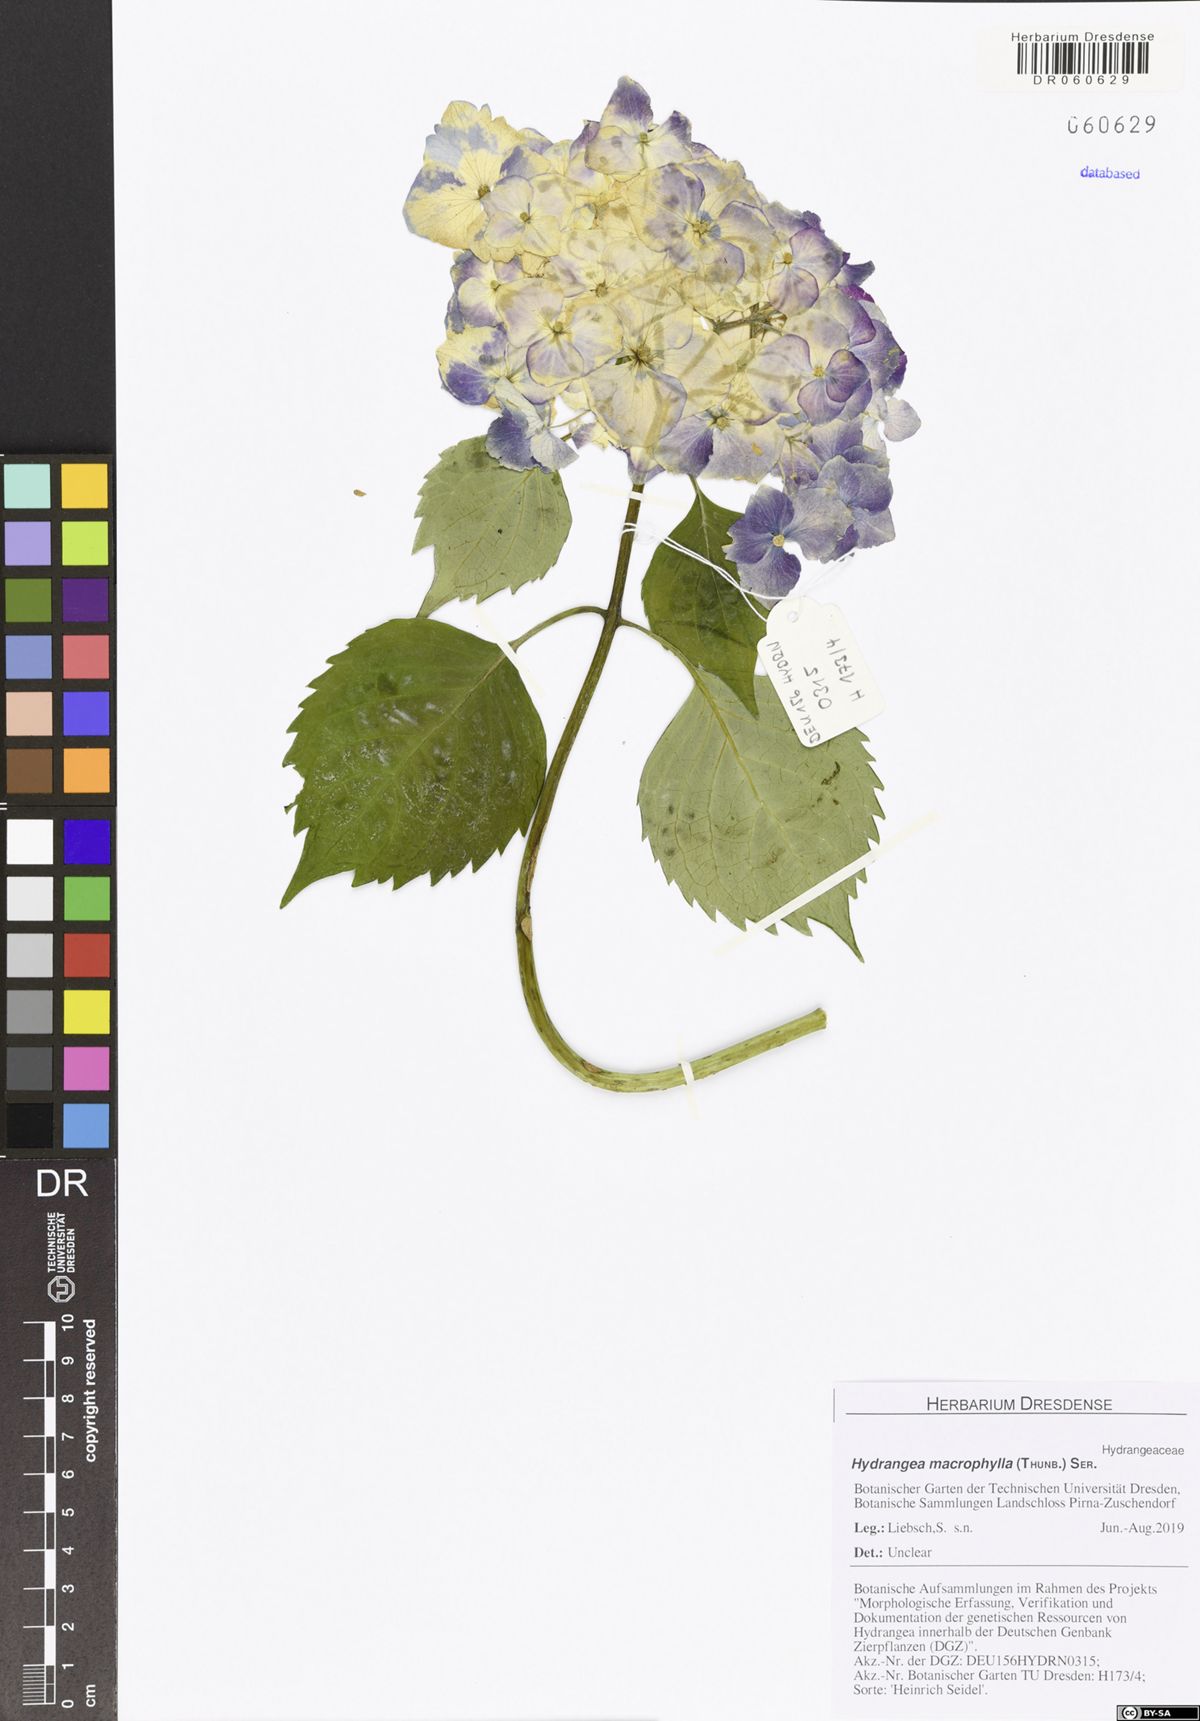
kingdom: Plantae
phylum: Tracheophyta
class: Magnoliopsida
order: Cornales
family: Hydrangeaceae
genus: Hydrangea
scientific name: Hydrangea macrophylla
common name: Hydrangea
